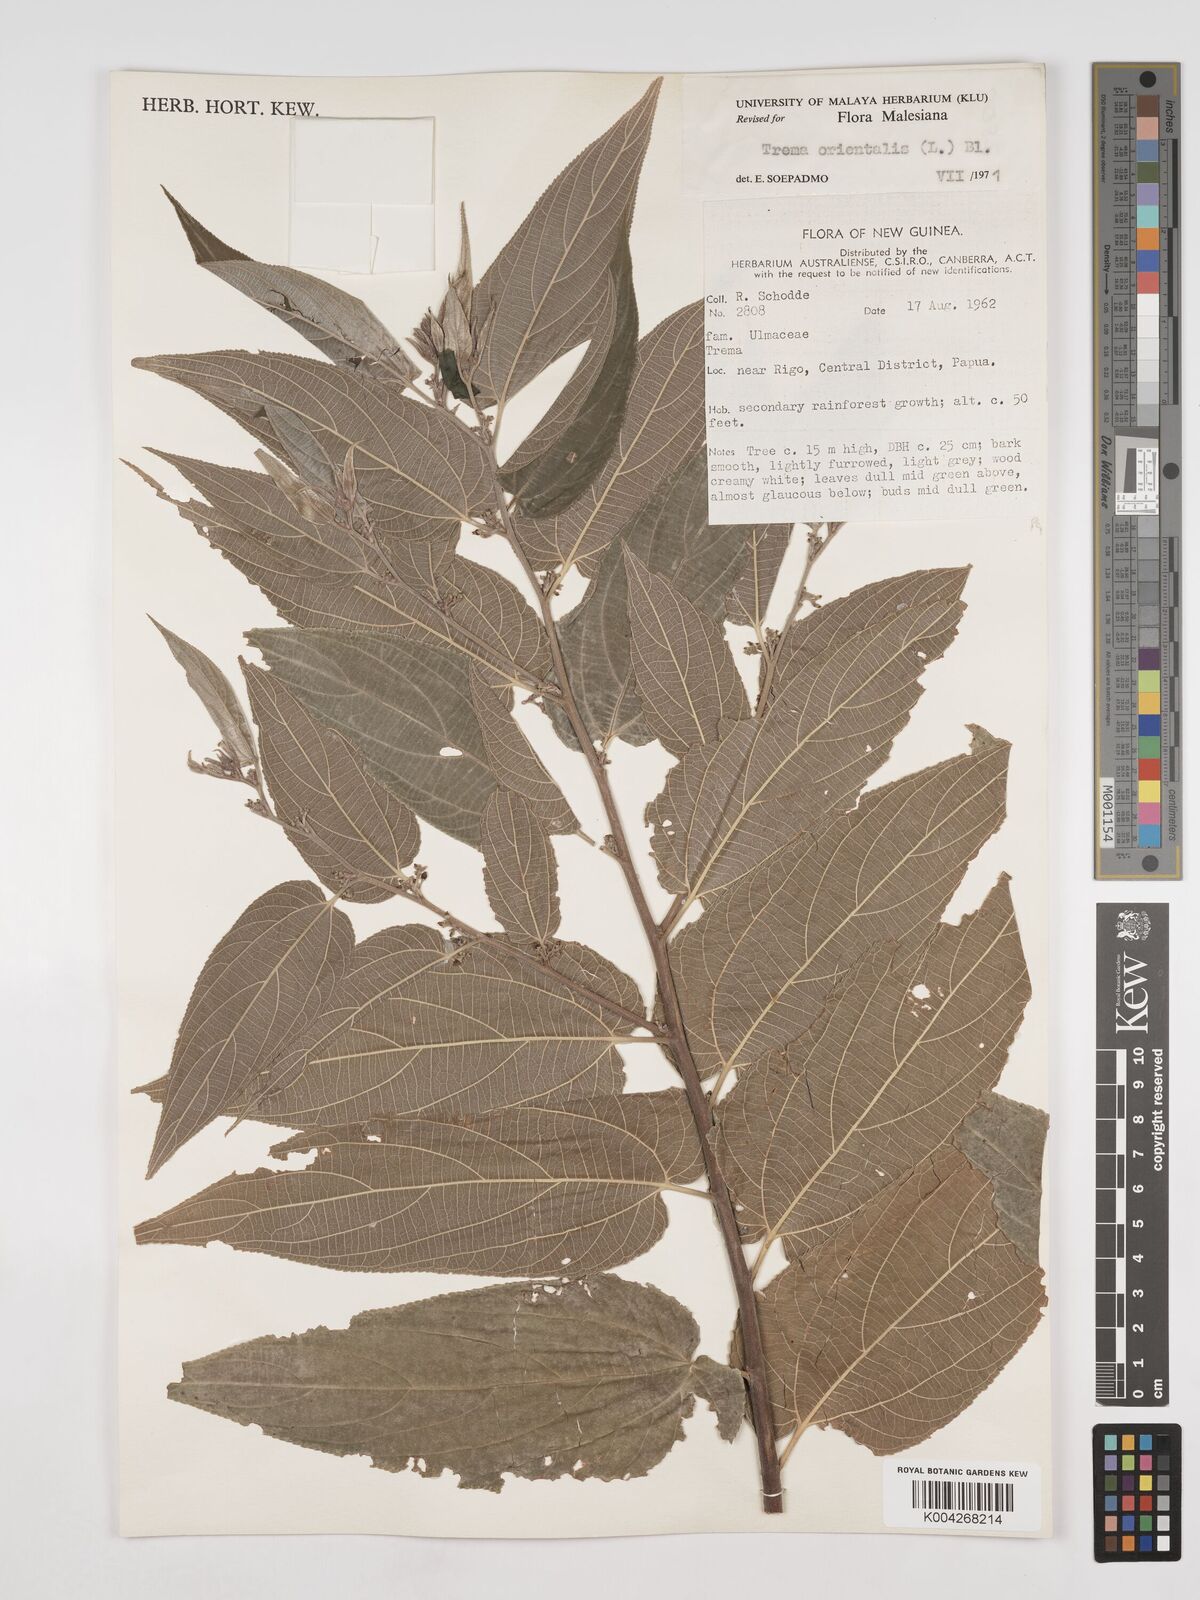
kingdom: Plantae
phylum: Tracheophyta
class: Magnoliopsida
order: Rosales
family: Cannabaceae
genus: Trema
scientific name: Trema orientale
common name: Indian charcoal tree
